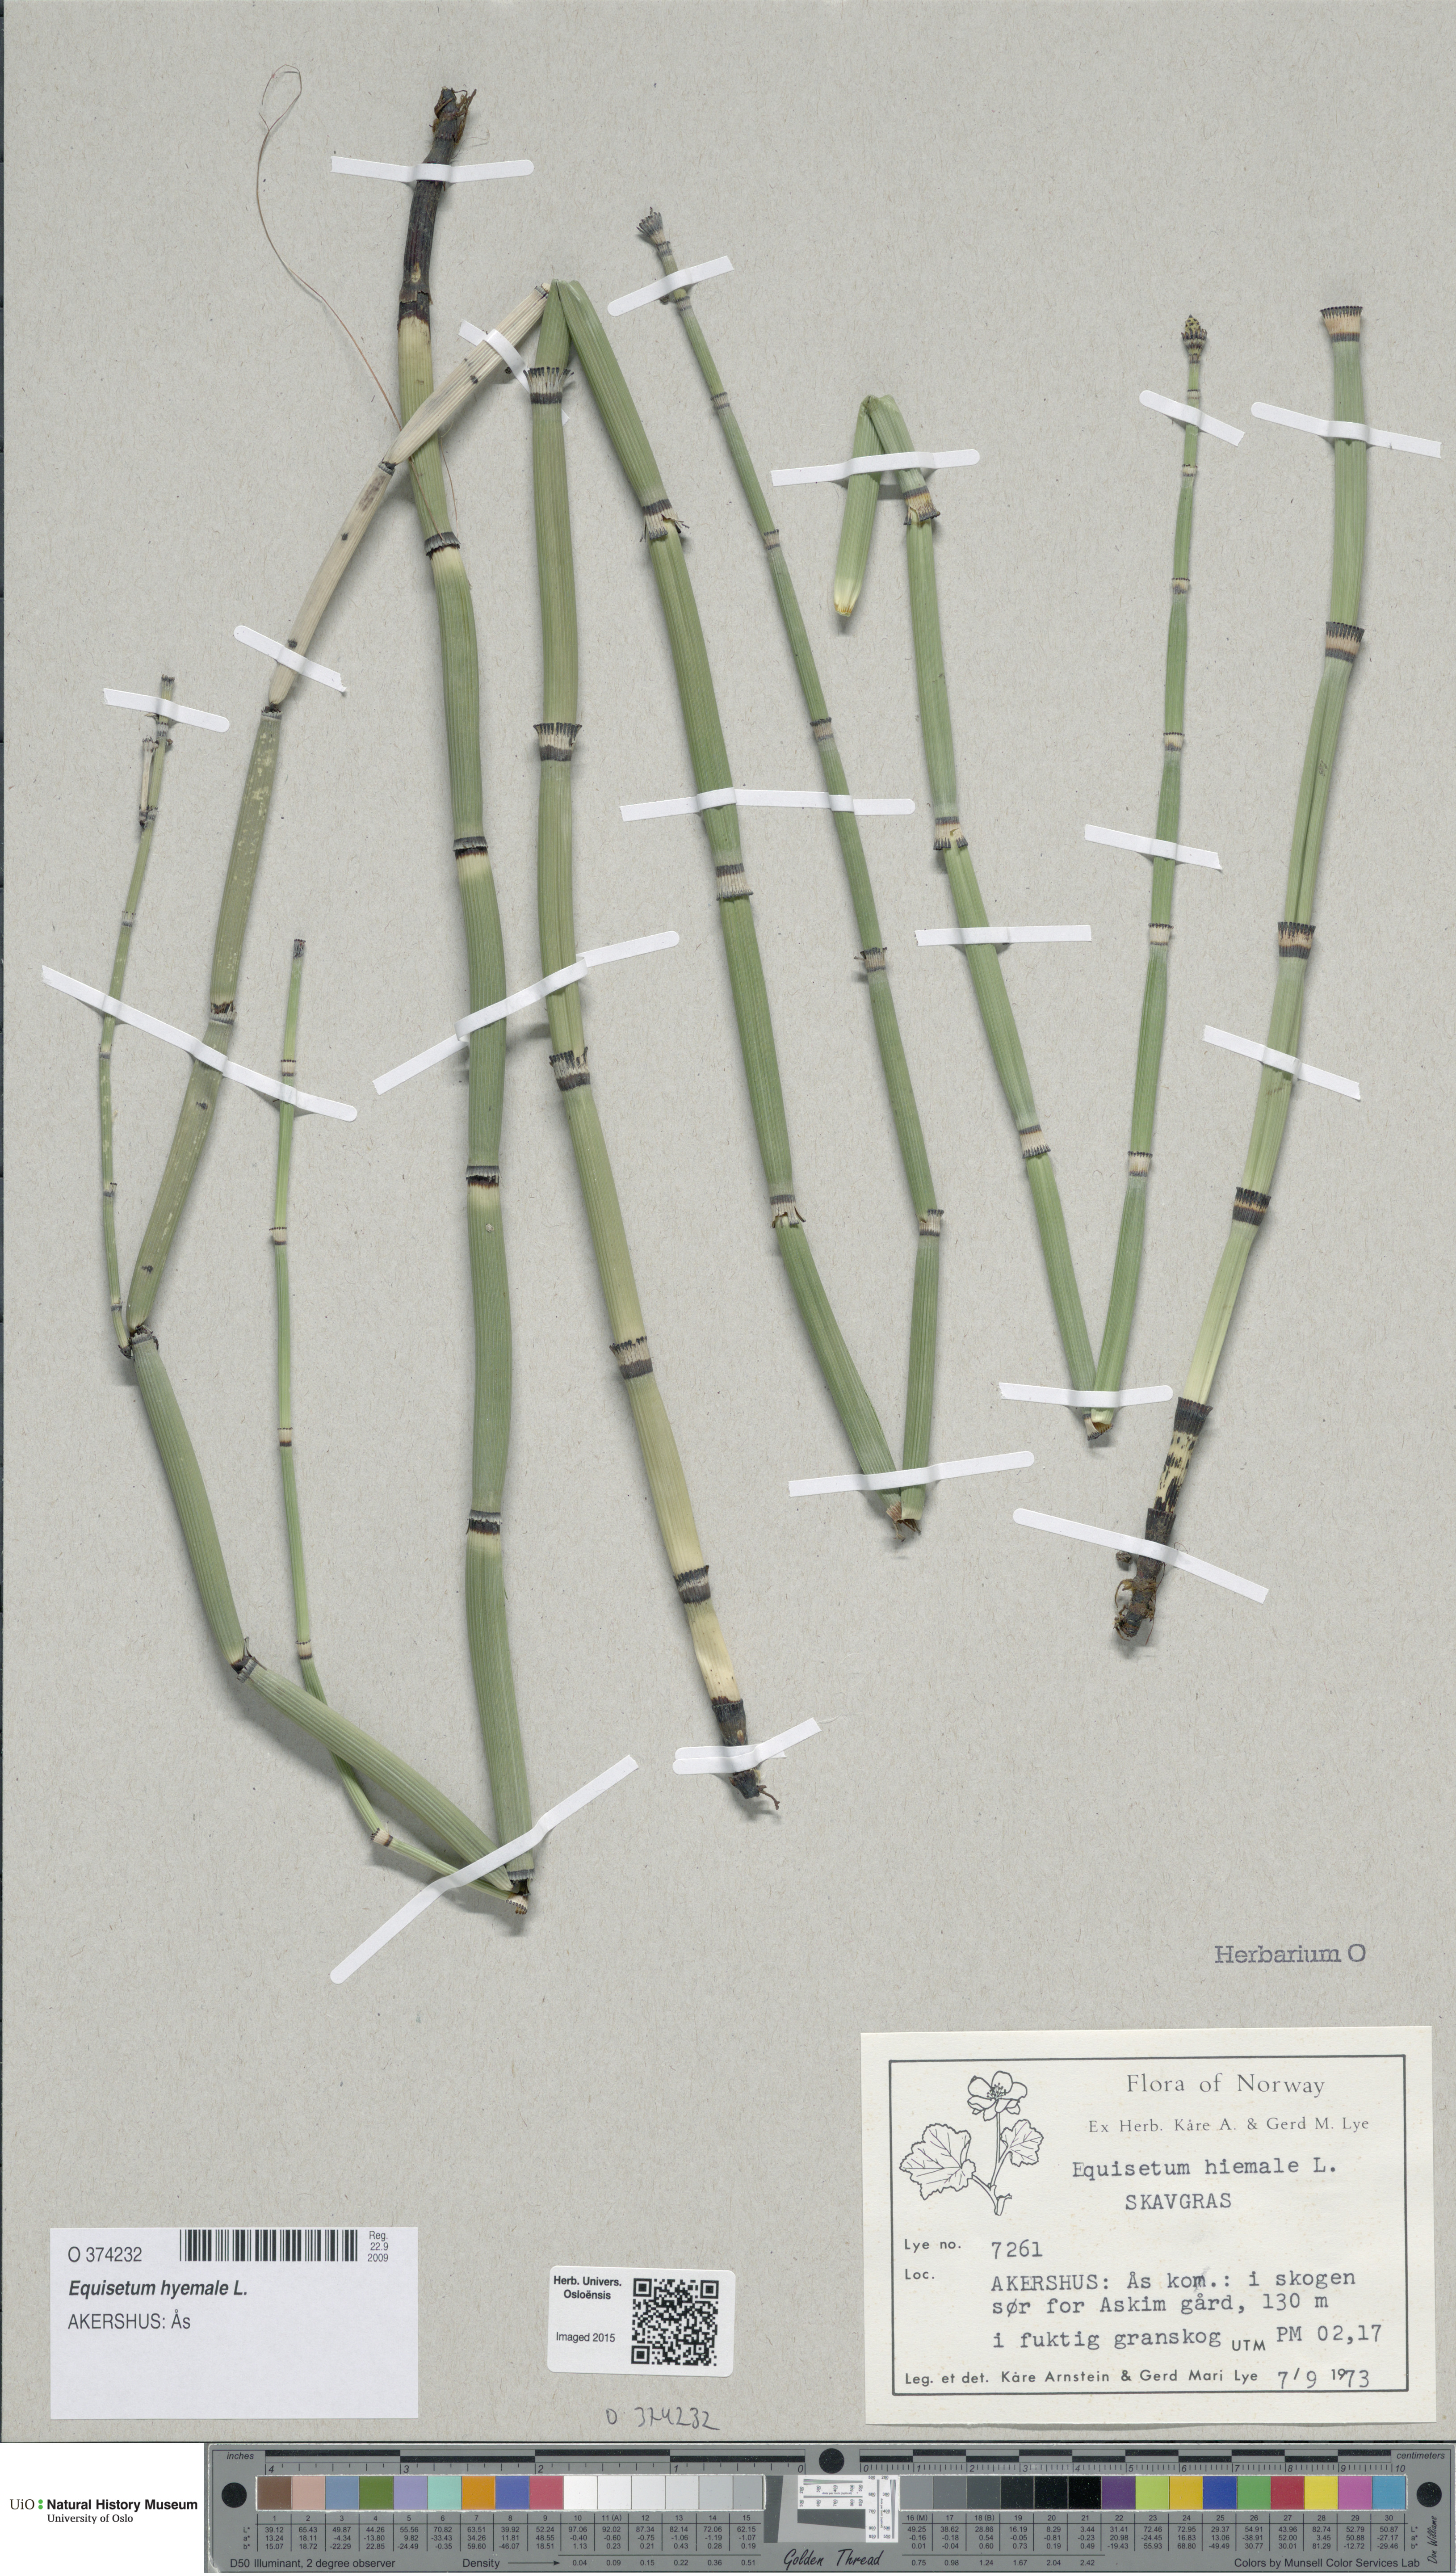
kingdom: Plantae
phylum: Tracheophyta
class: Polypodiopsida
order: Equisetales
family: Equisetaceae
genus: Equisetum
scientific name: Equisetum hyemale
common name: Rough horsetail
